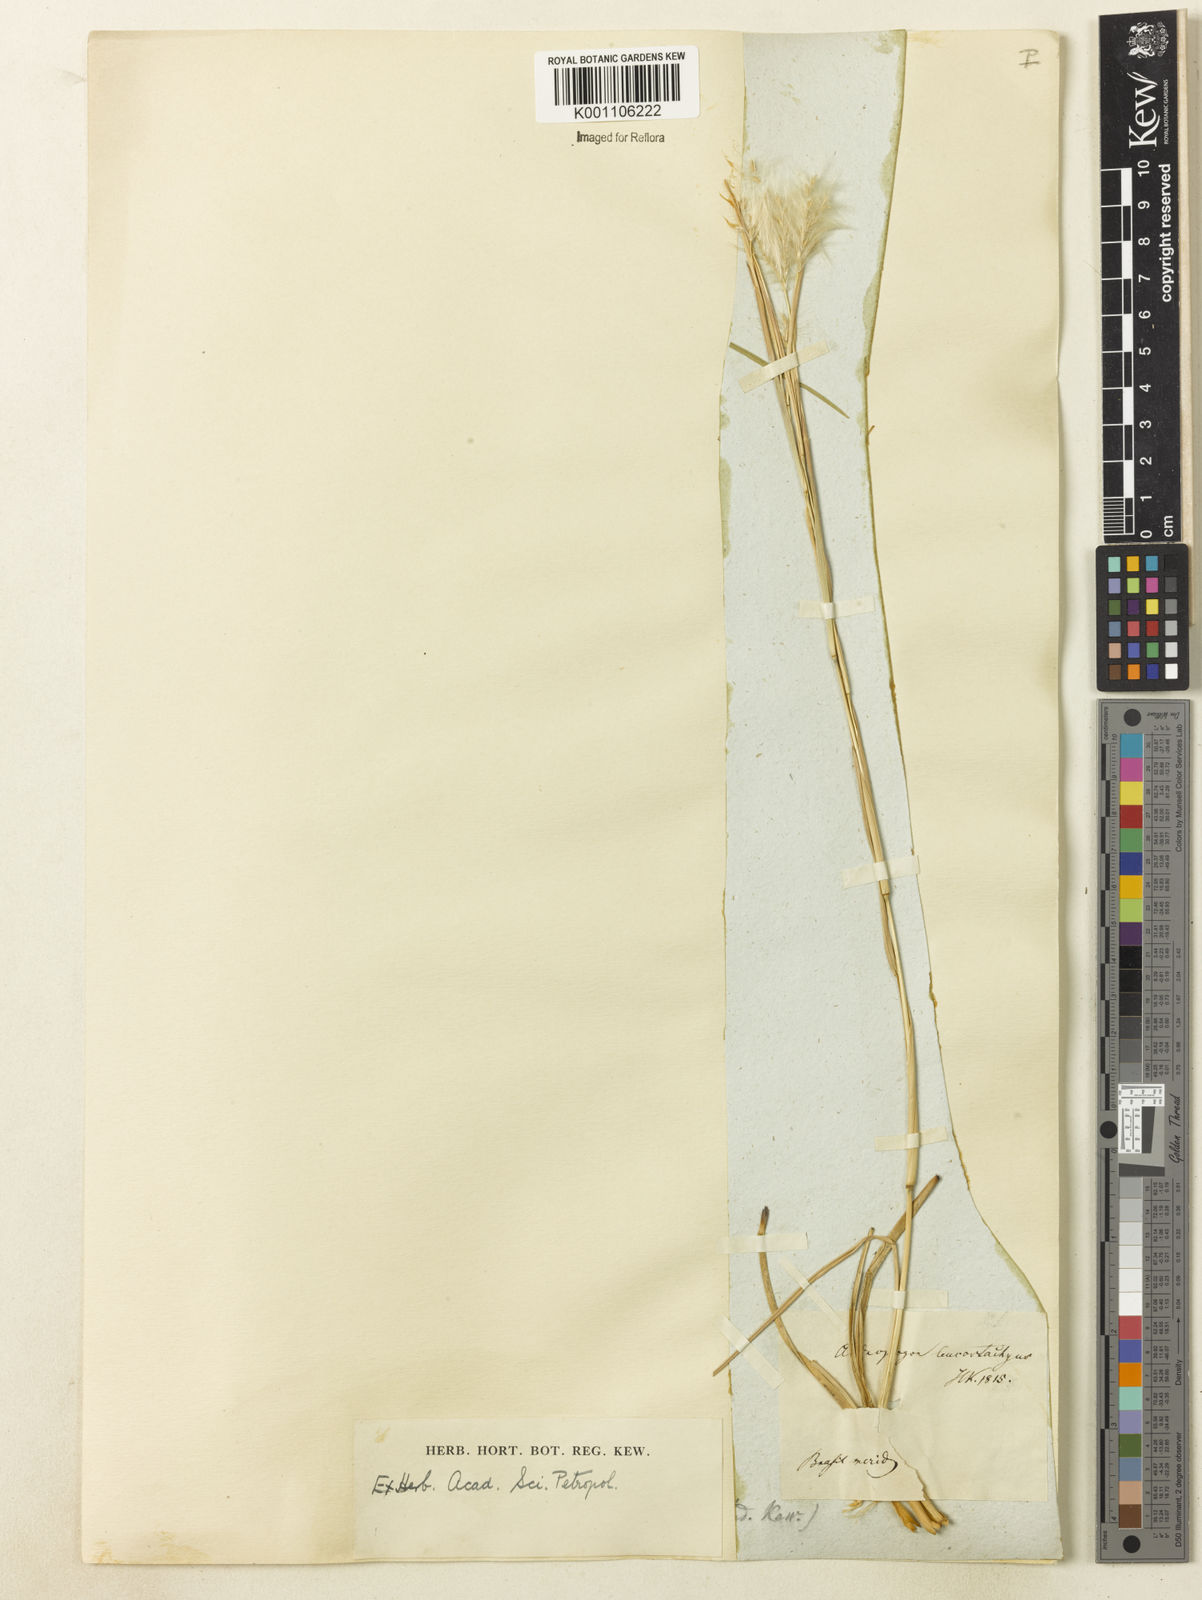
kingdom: Plantae
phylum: Tracheophyta
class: Liliopsida
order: Poales
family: Poaceae
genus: Andropogon
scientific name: Andropogon leucostachyus
